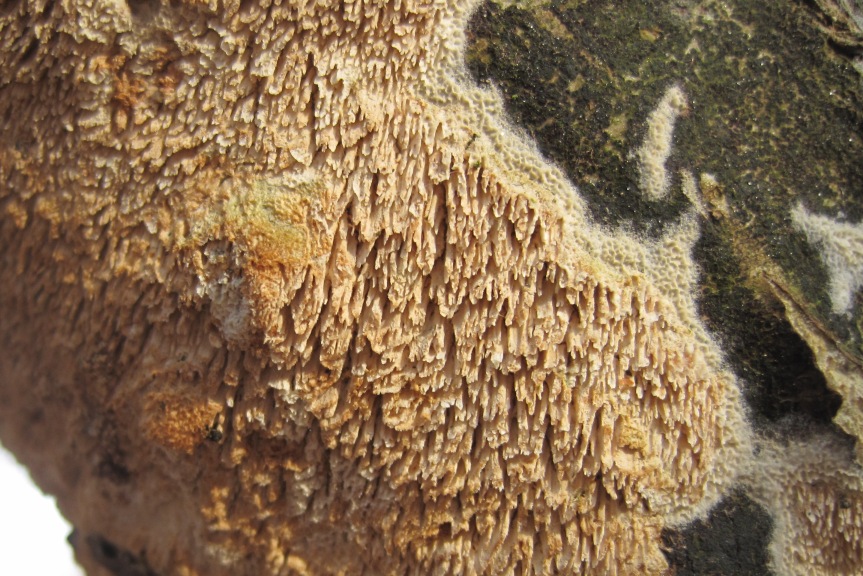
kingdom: Fungi
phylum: Basidiomycota
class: Agaricomycetes
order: Hymenochaetales
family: Schizoporaceae
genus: Schizopora
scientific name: Schizopora paradoxa
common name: hvid tandsvamp
